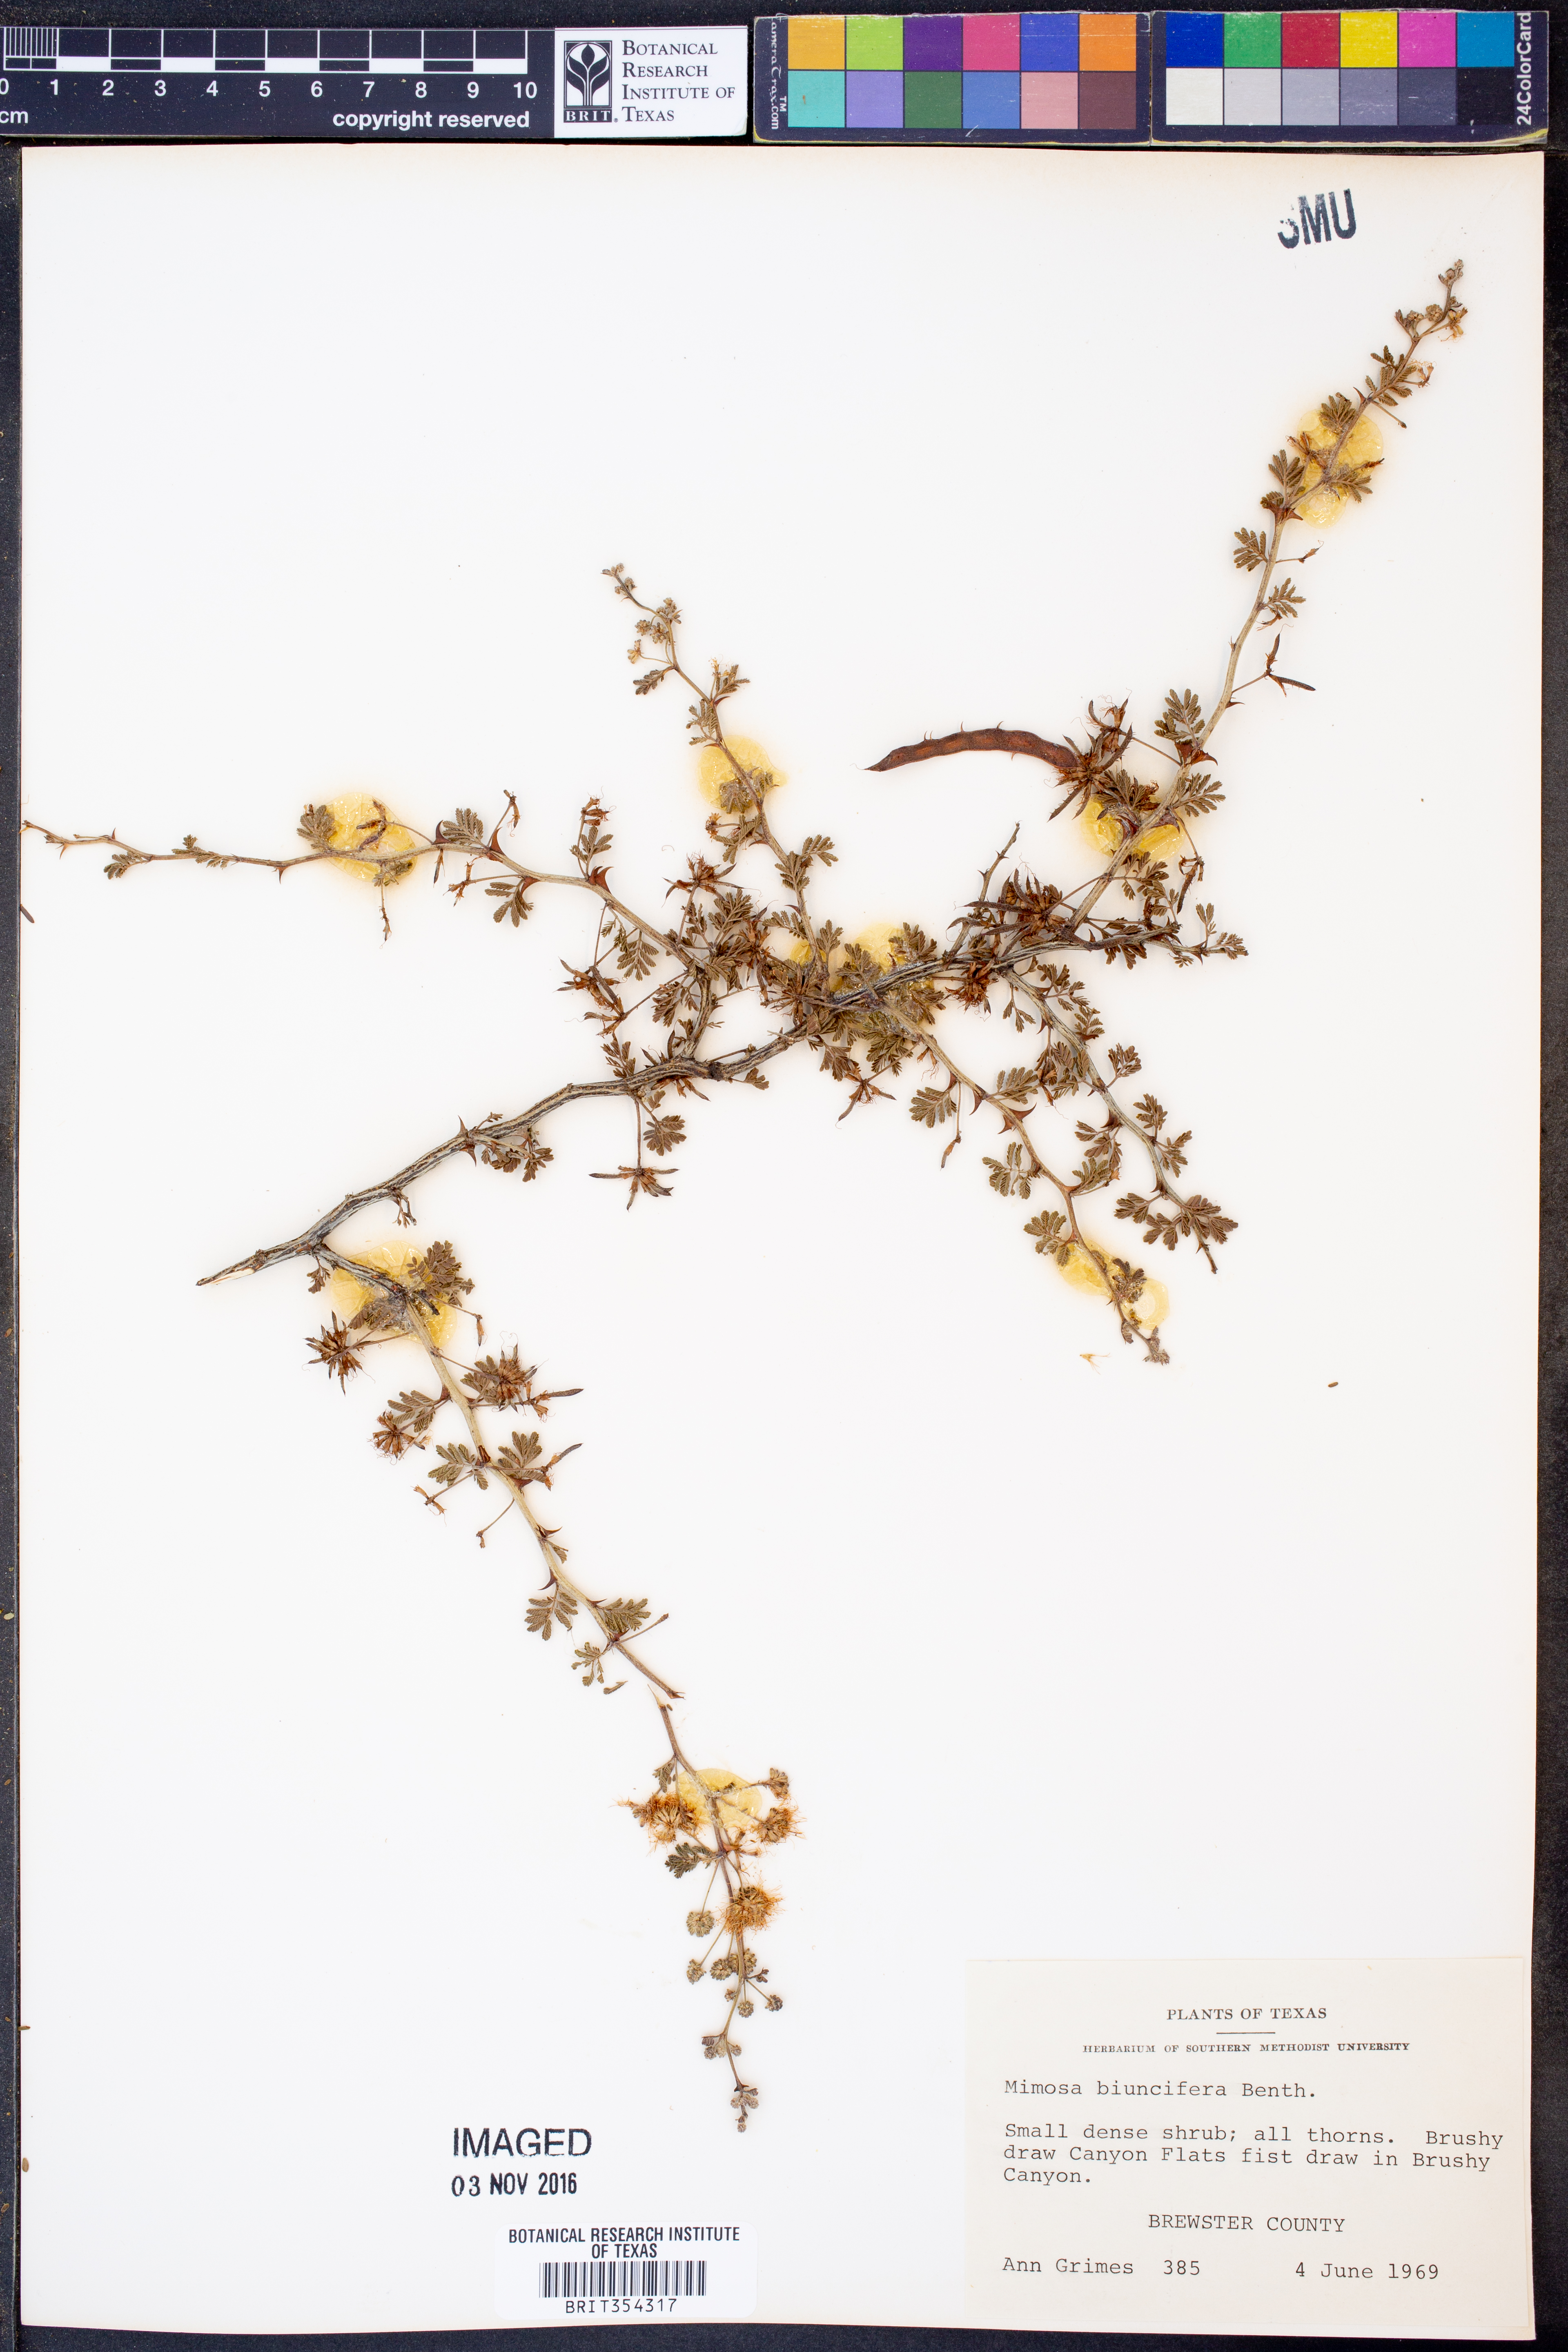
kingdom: Plantae
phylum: Tracheophyta
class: Magnoliopsida
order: Fabales
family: Fabaceae
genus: Mimosa
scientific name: Mimosa biuncifera
